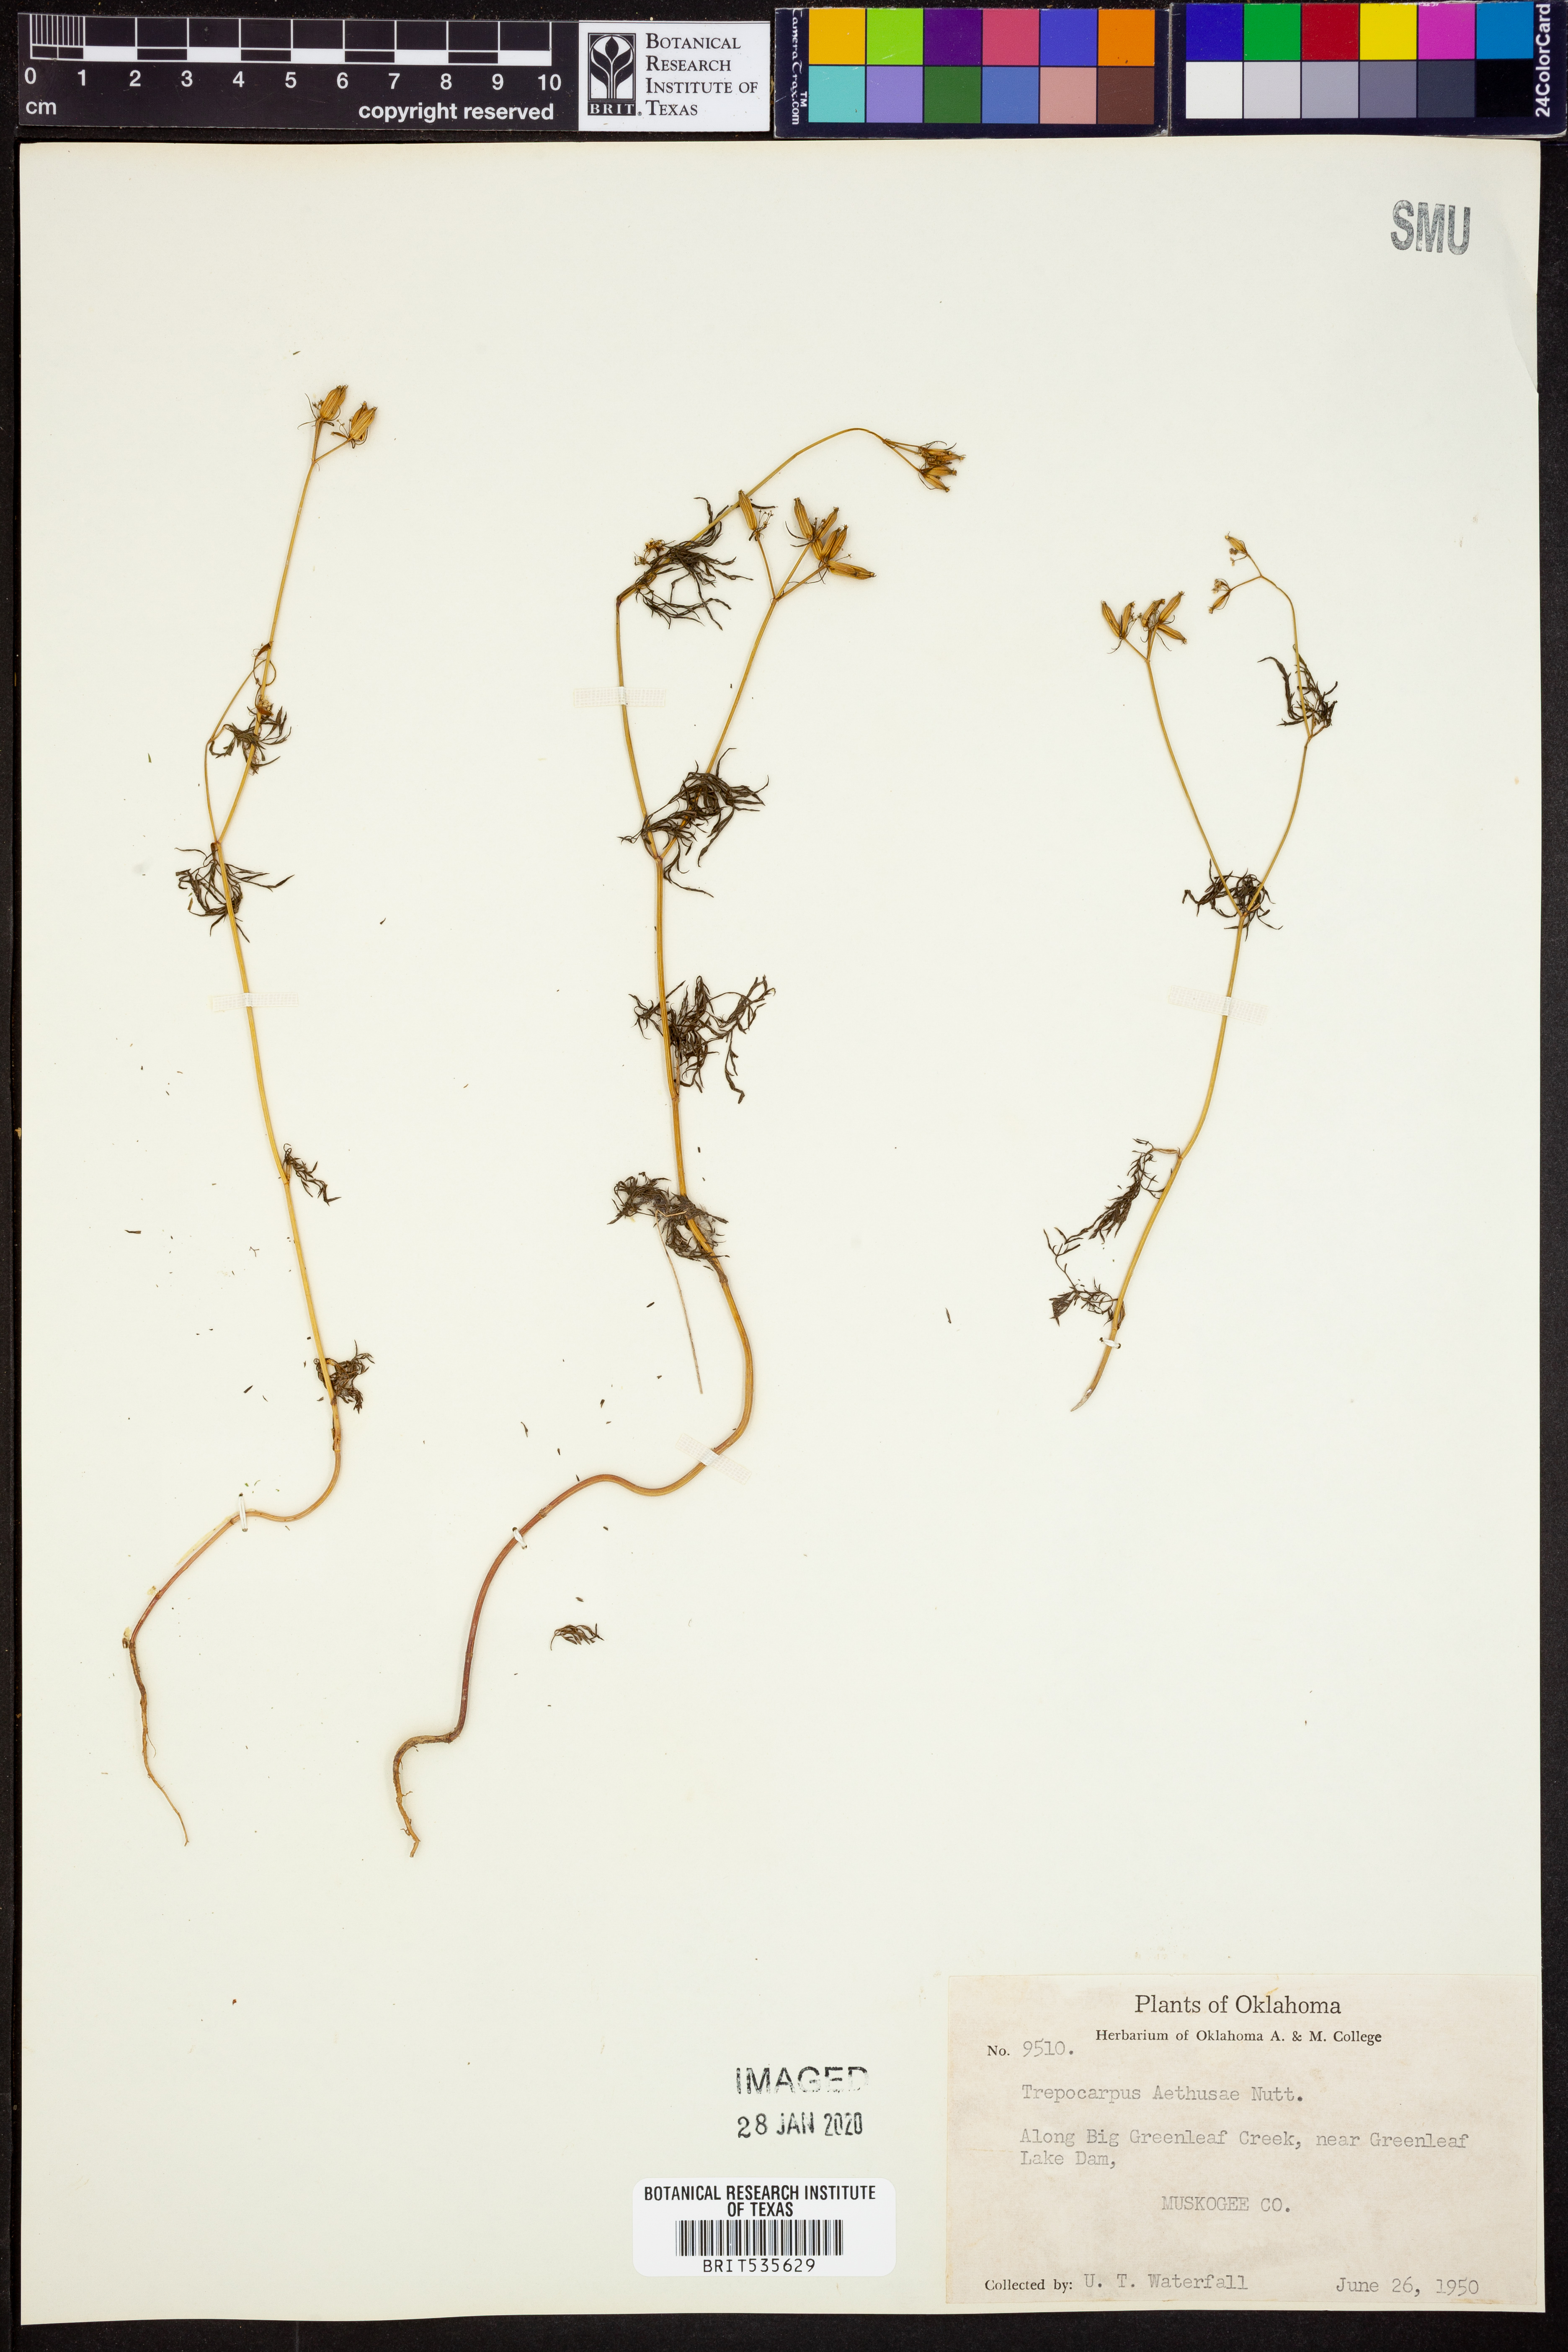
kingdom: Plantae
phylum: Tracheophyta
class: Magnoliopsida
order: Apiales
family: Apiaceae
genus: Trepocarpus
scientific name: Trepocarpus aethusae
